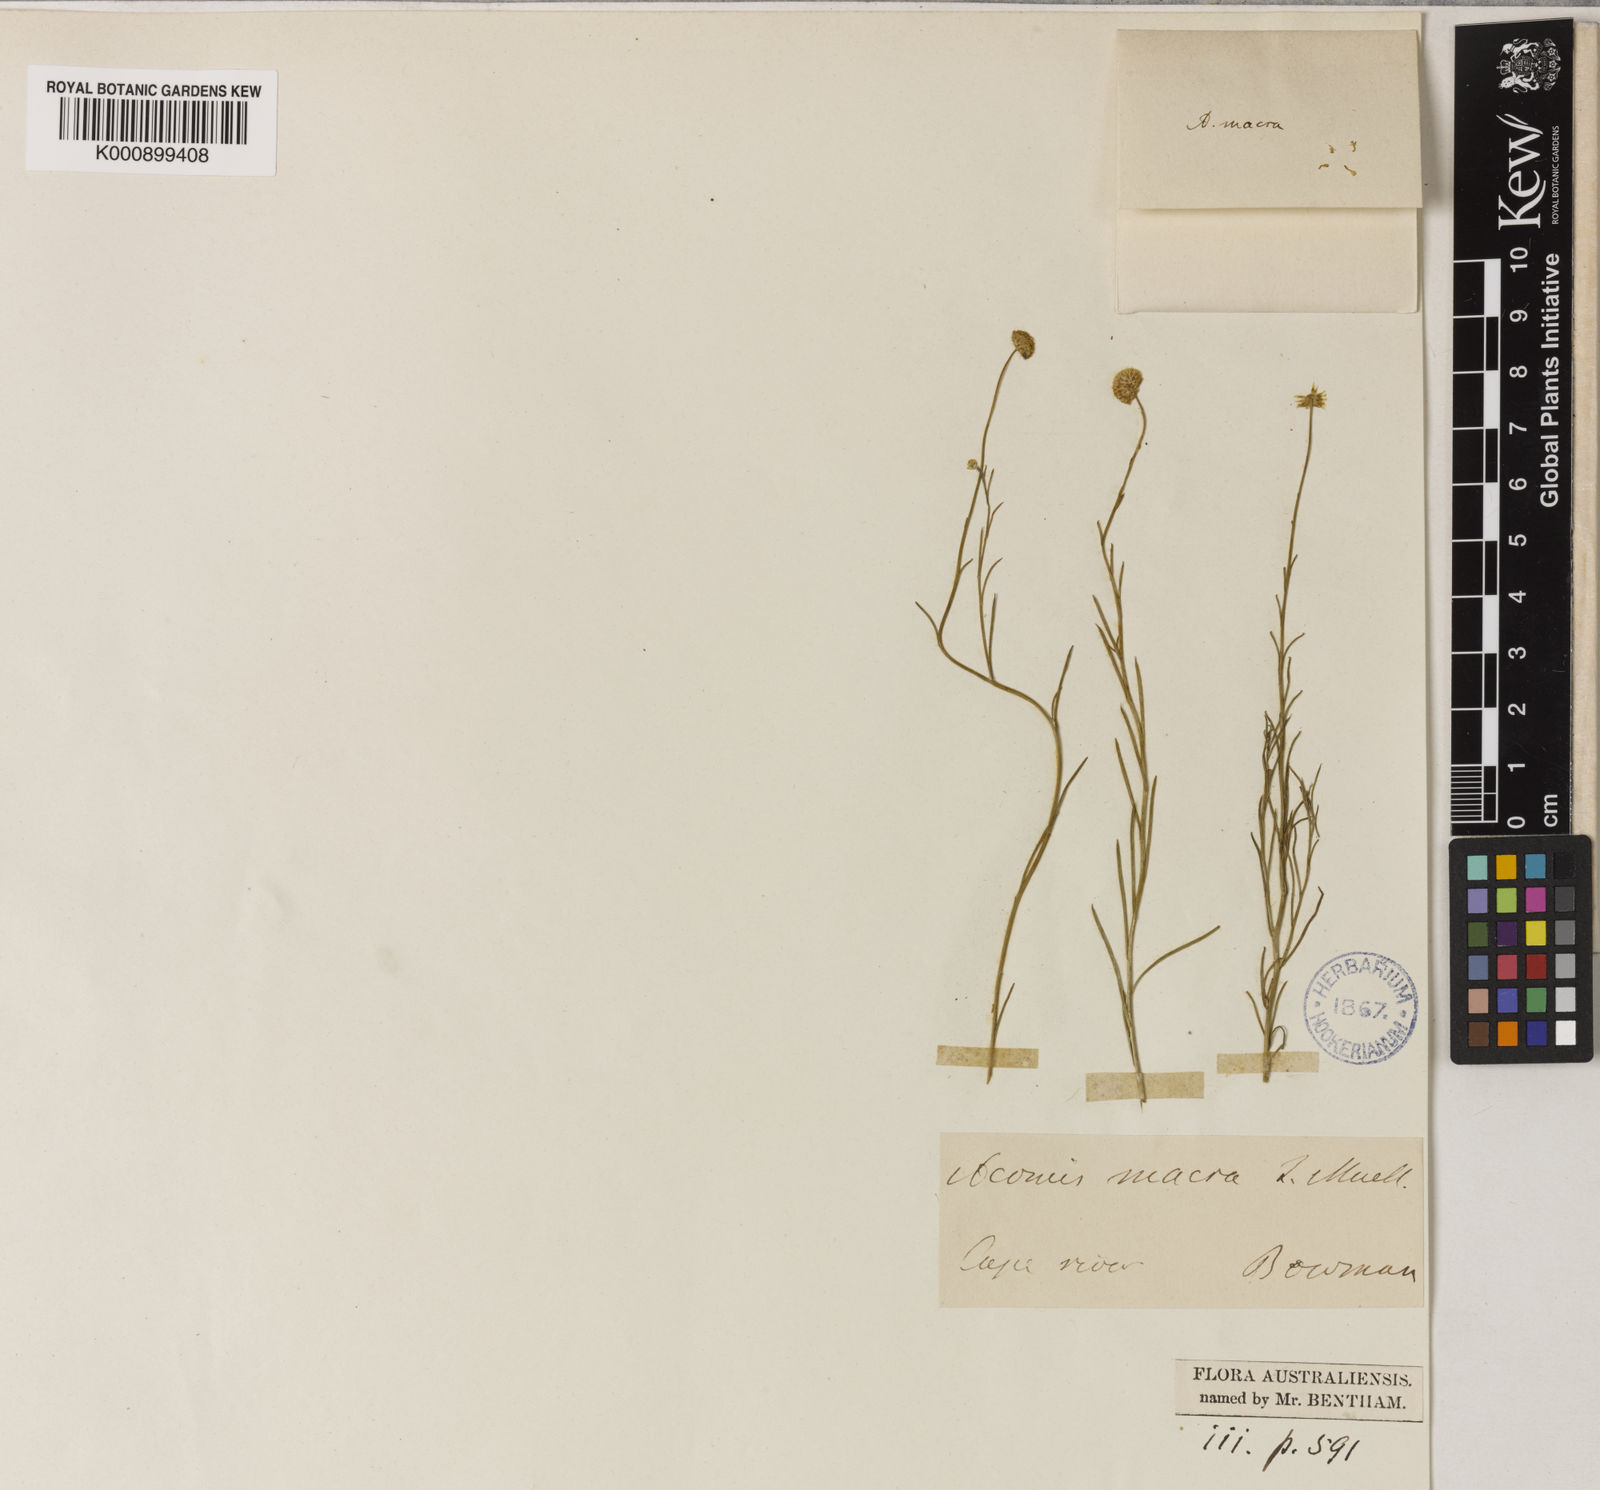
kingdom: Plantae
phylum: Tracheophyta
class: Magnoliopsida
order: Asterales
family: Asteraceae
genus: Acomis
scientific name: Acomis macra
